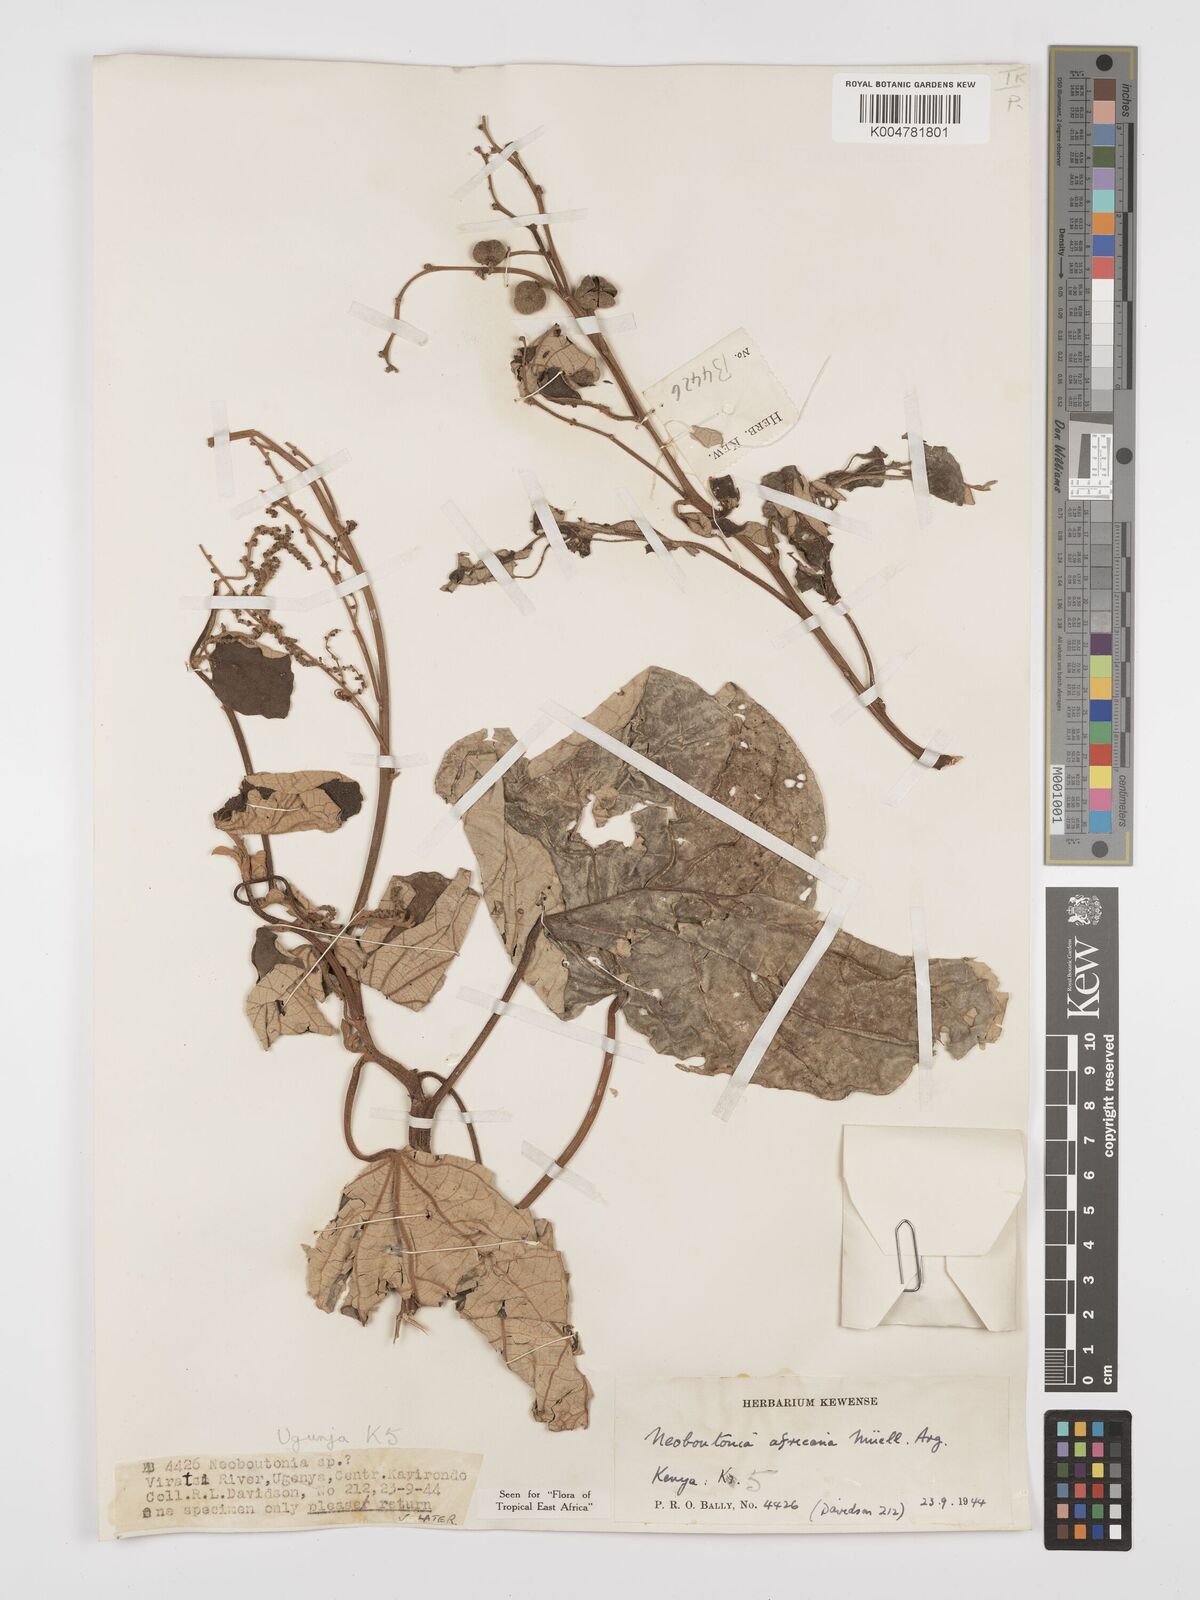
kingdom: Plantae
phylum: Tracheophyta
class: Magnoliopsida
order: Malpighiales
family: Euphorbiaceae
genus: Neoboutonia
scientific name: Neoboutonia melleri
